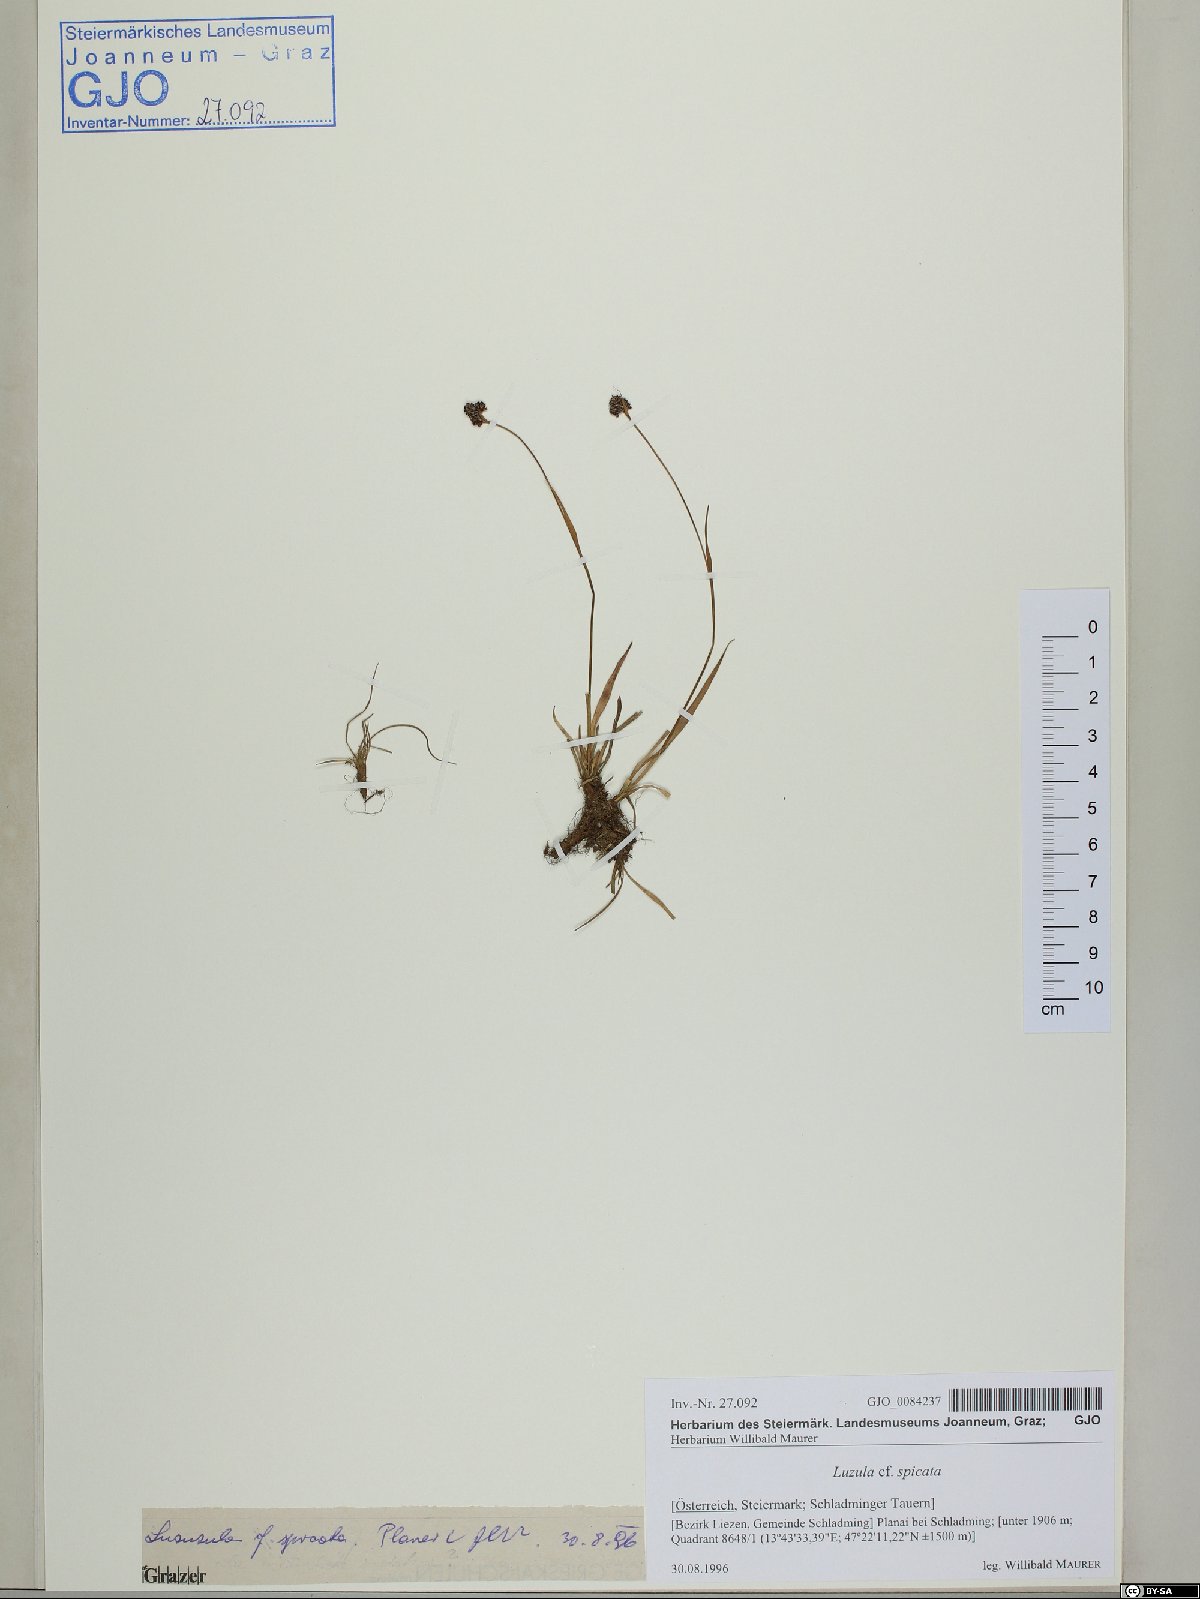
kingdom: Plantae
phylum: Tracheophyta
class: Liliopsida
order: Poales
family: Juncaceae
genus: Luzula
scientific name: Luzula spicata
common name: Spiked wood-rush
